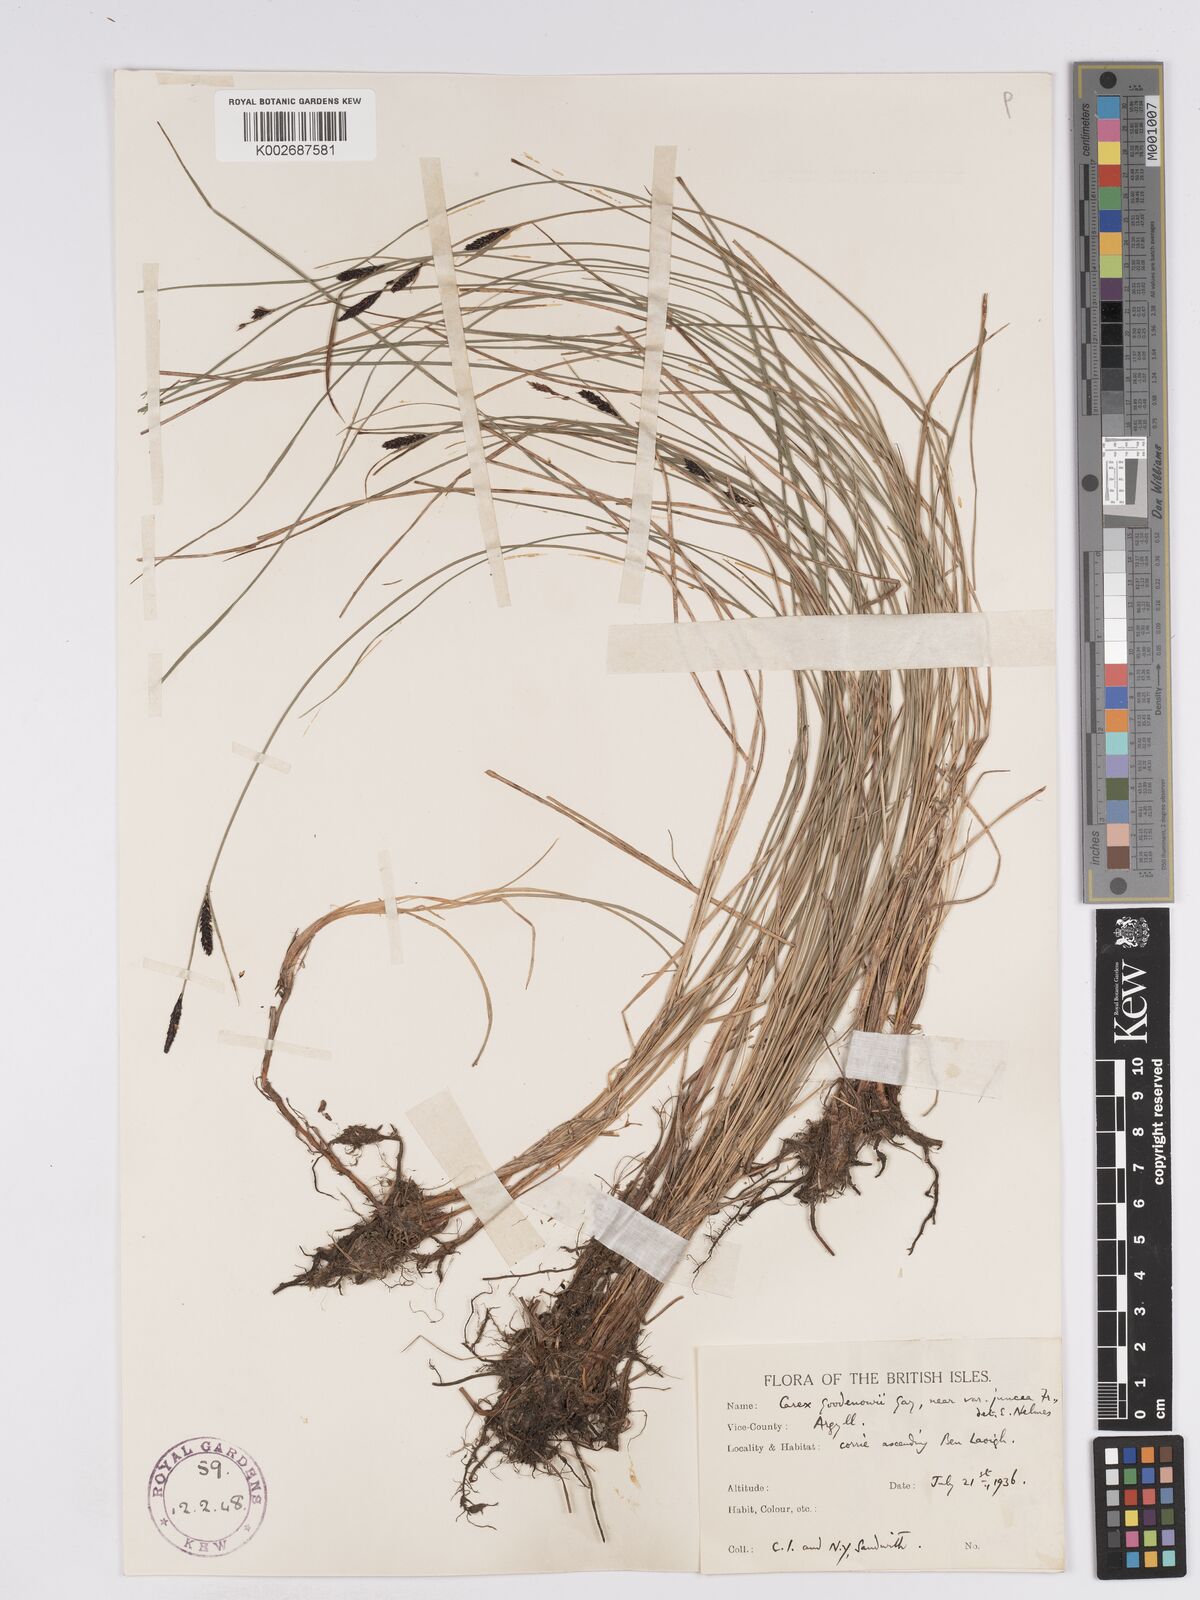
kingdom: Plantae
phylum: Tracheophyta
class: Liliopsida
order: Poales
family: Cyperaceae
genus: Carex
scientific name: Carex nigra
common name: Common sedge
